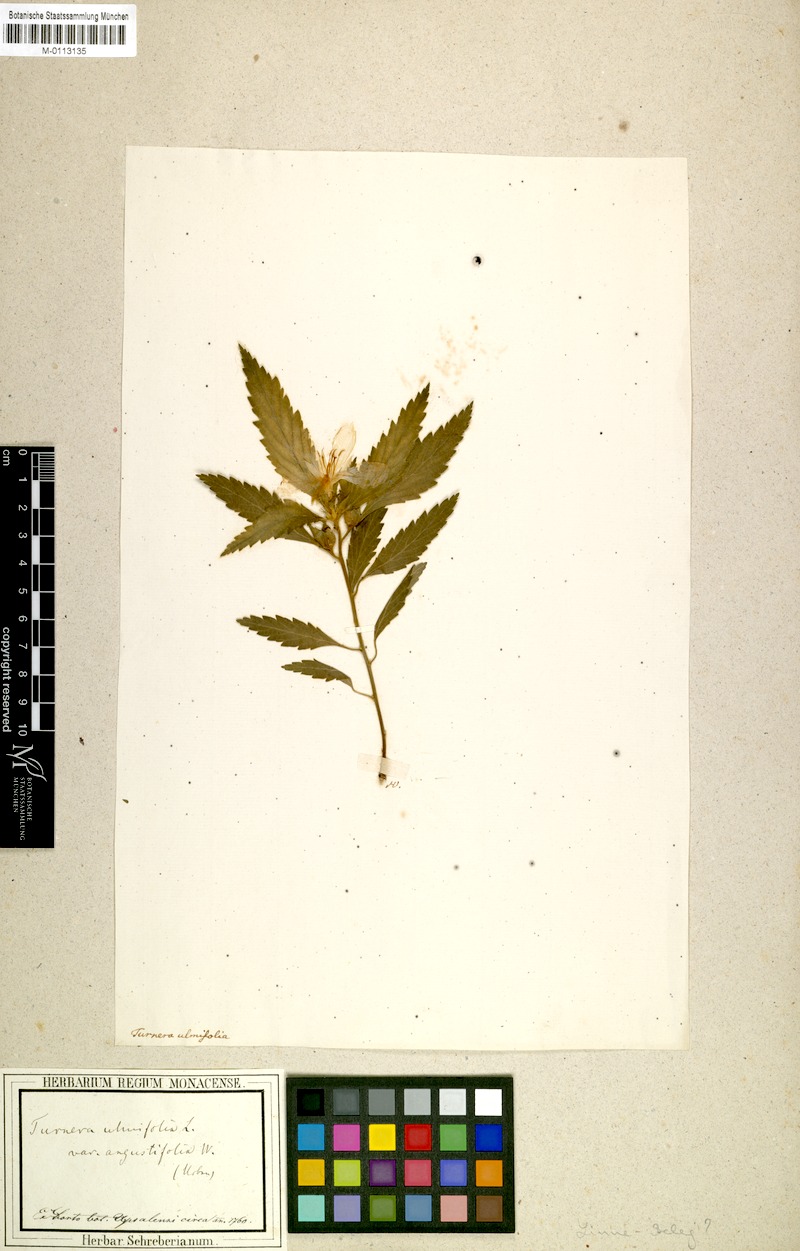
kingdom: Plantae
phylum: Tracheophyta
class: Magnoliopsida
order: Malpighiales
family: Turneraceae
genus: Turnera
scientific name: Turnera ulmifolia
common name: Ramgoat dashalong
